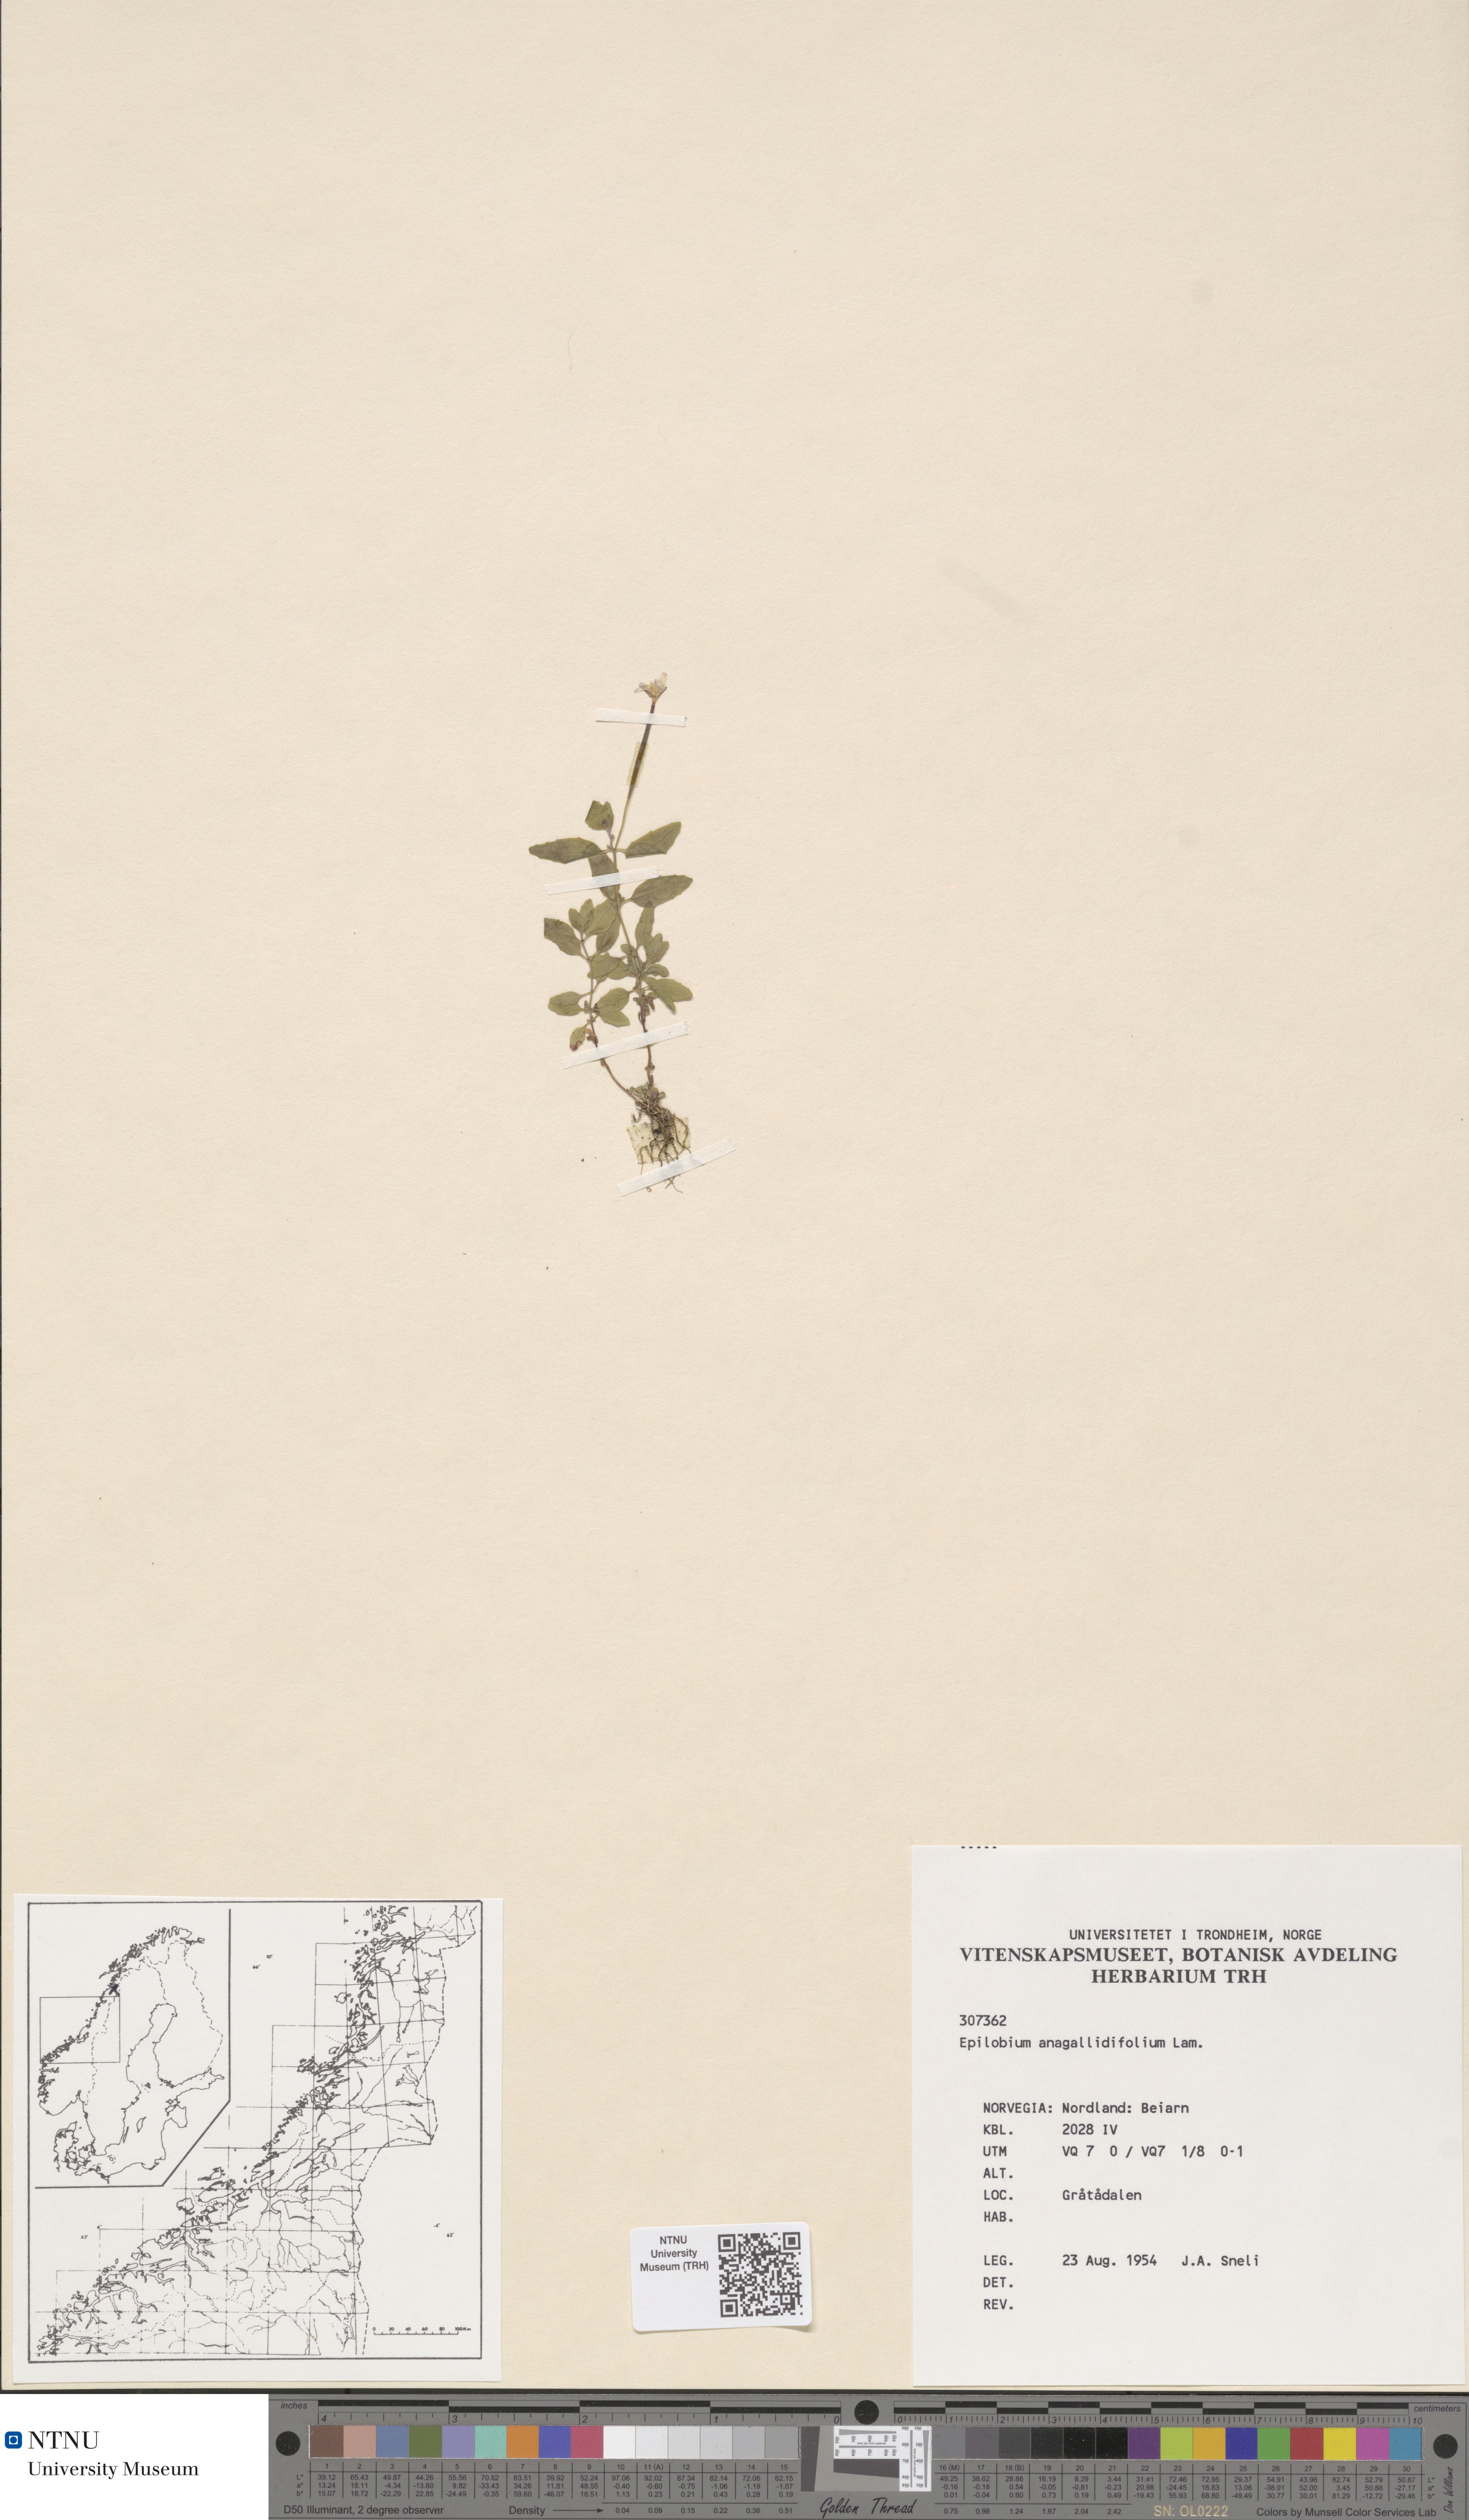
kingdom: Plantae
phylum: Tracheophyta
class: Magnoliopsida
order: Myrtales
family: Onagraceae
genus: Epilobium
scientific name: Epilobium anagallidifolium
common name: Alpine willowherb
